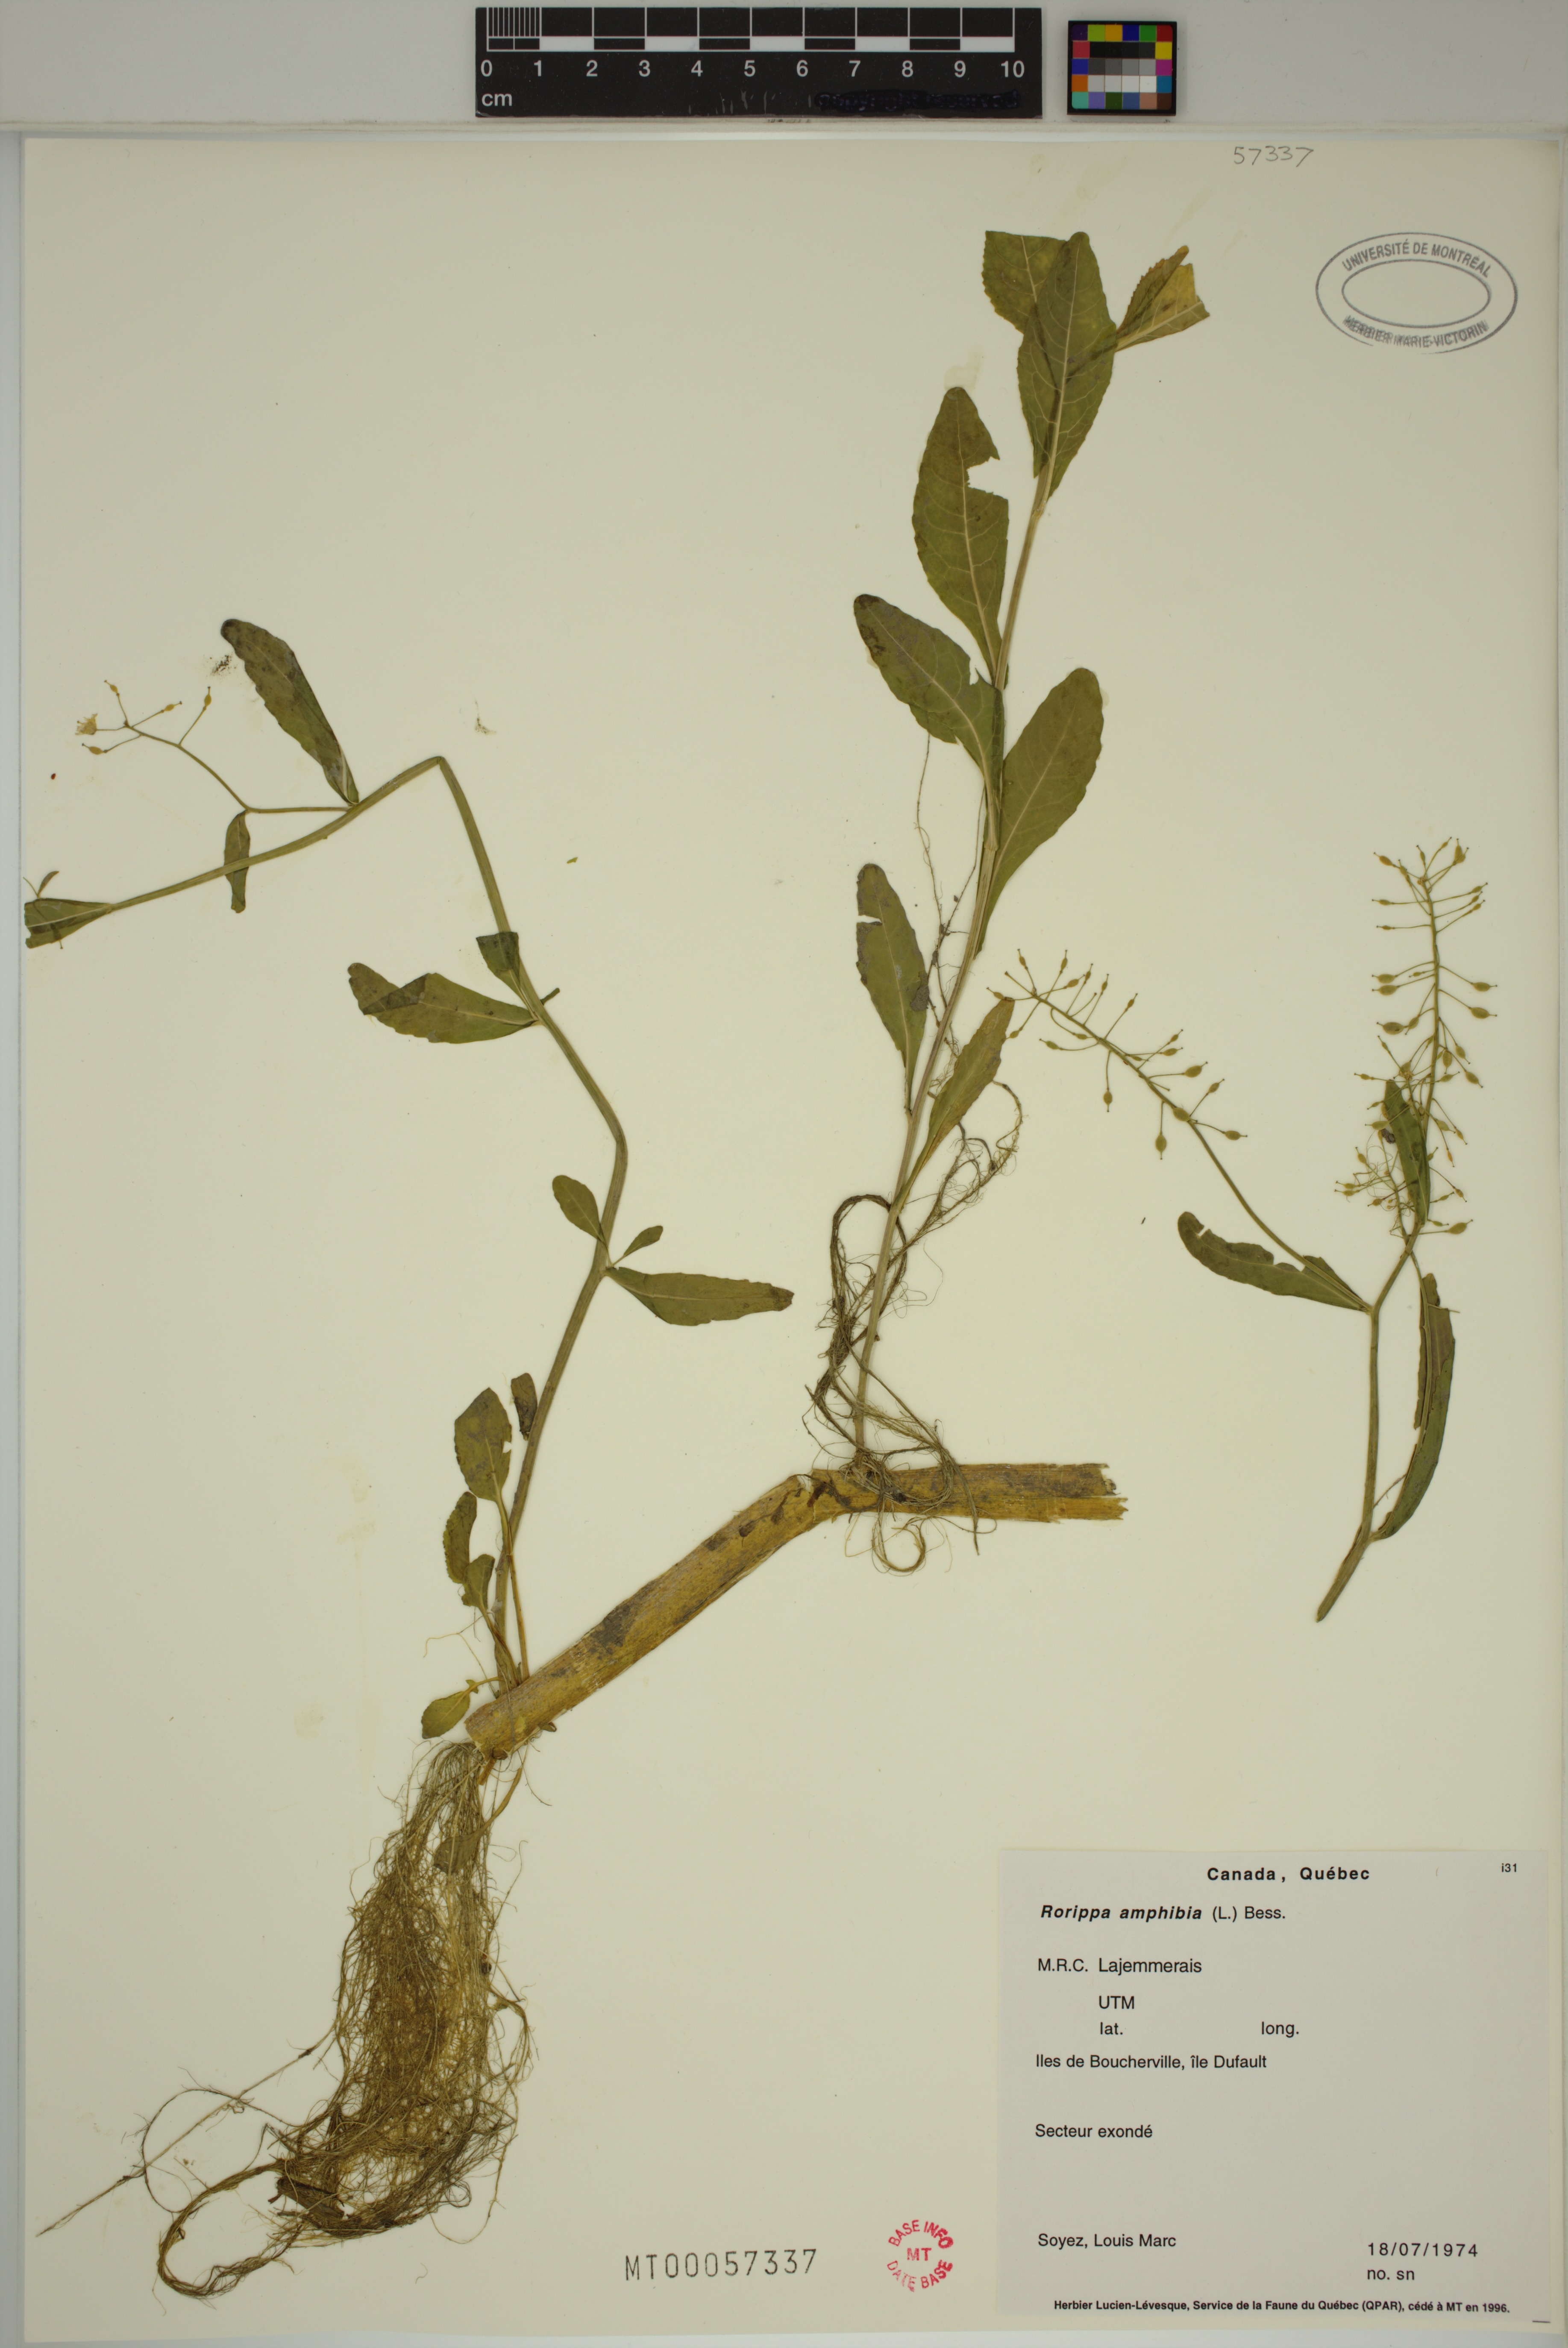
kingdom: Plantae
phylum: Tracheophyta
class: Magnoliopsida
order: Brassicales
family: Brassicaceae
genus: Rorippa
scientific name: Rorippa amphibia
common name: Great yellow-cress
